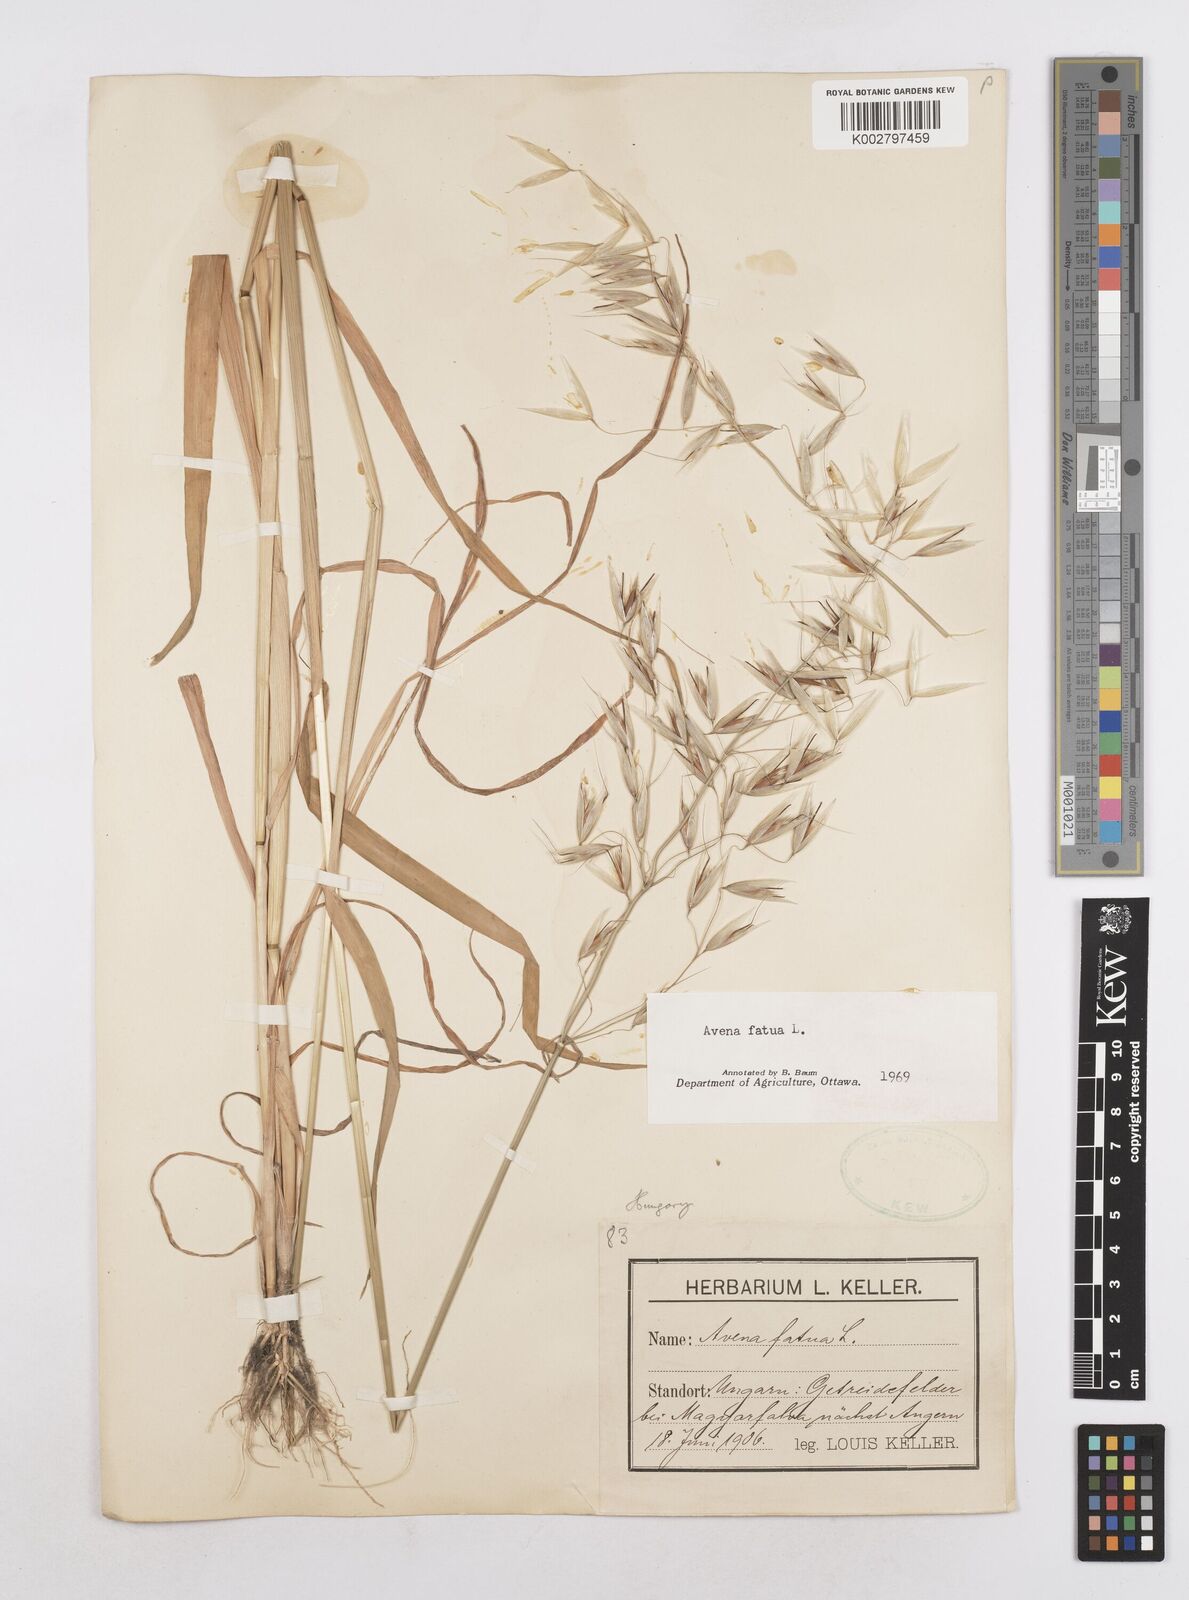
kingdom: Plantae
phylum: Tracheophyta
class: Liliopsida
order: Poales
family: Poaceae
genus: Avena
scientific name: Avena fatua
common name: Wild oat
